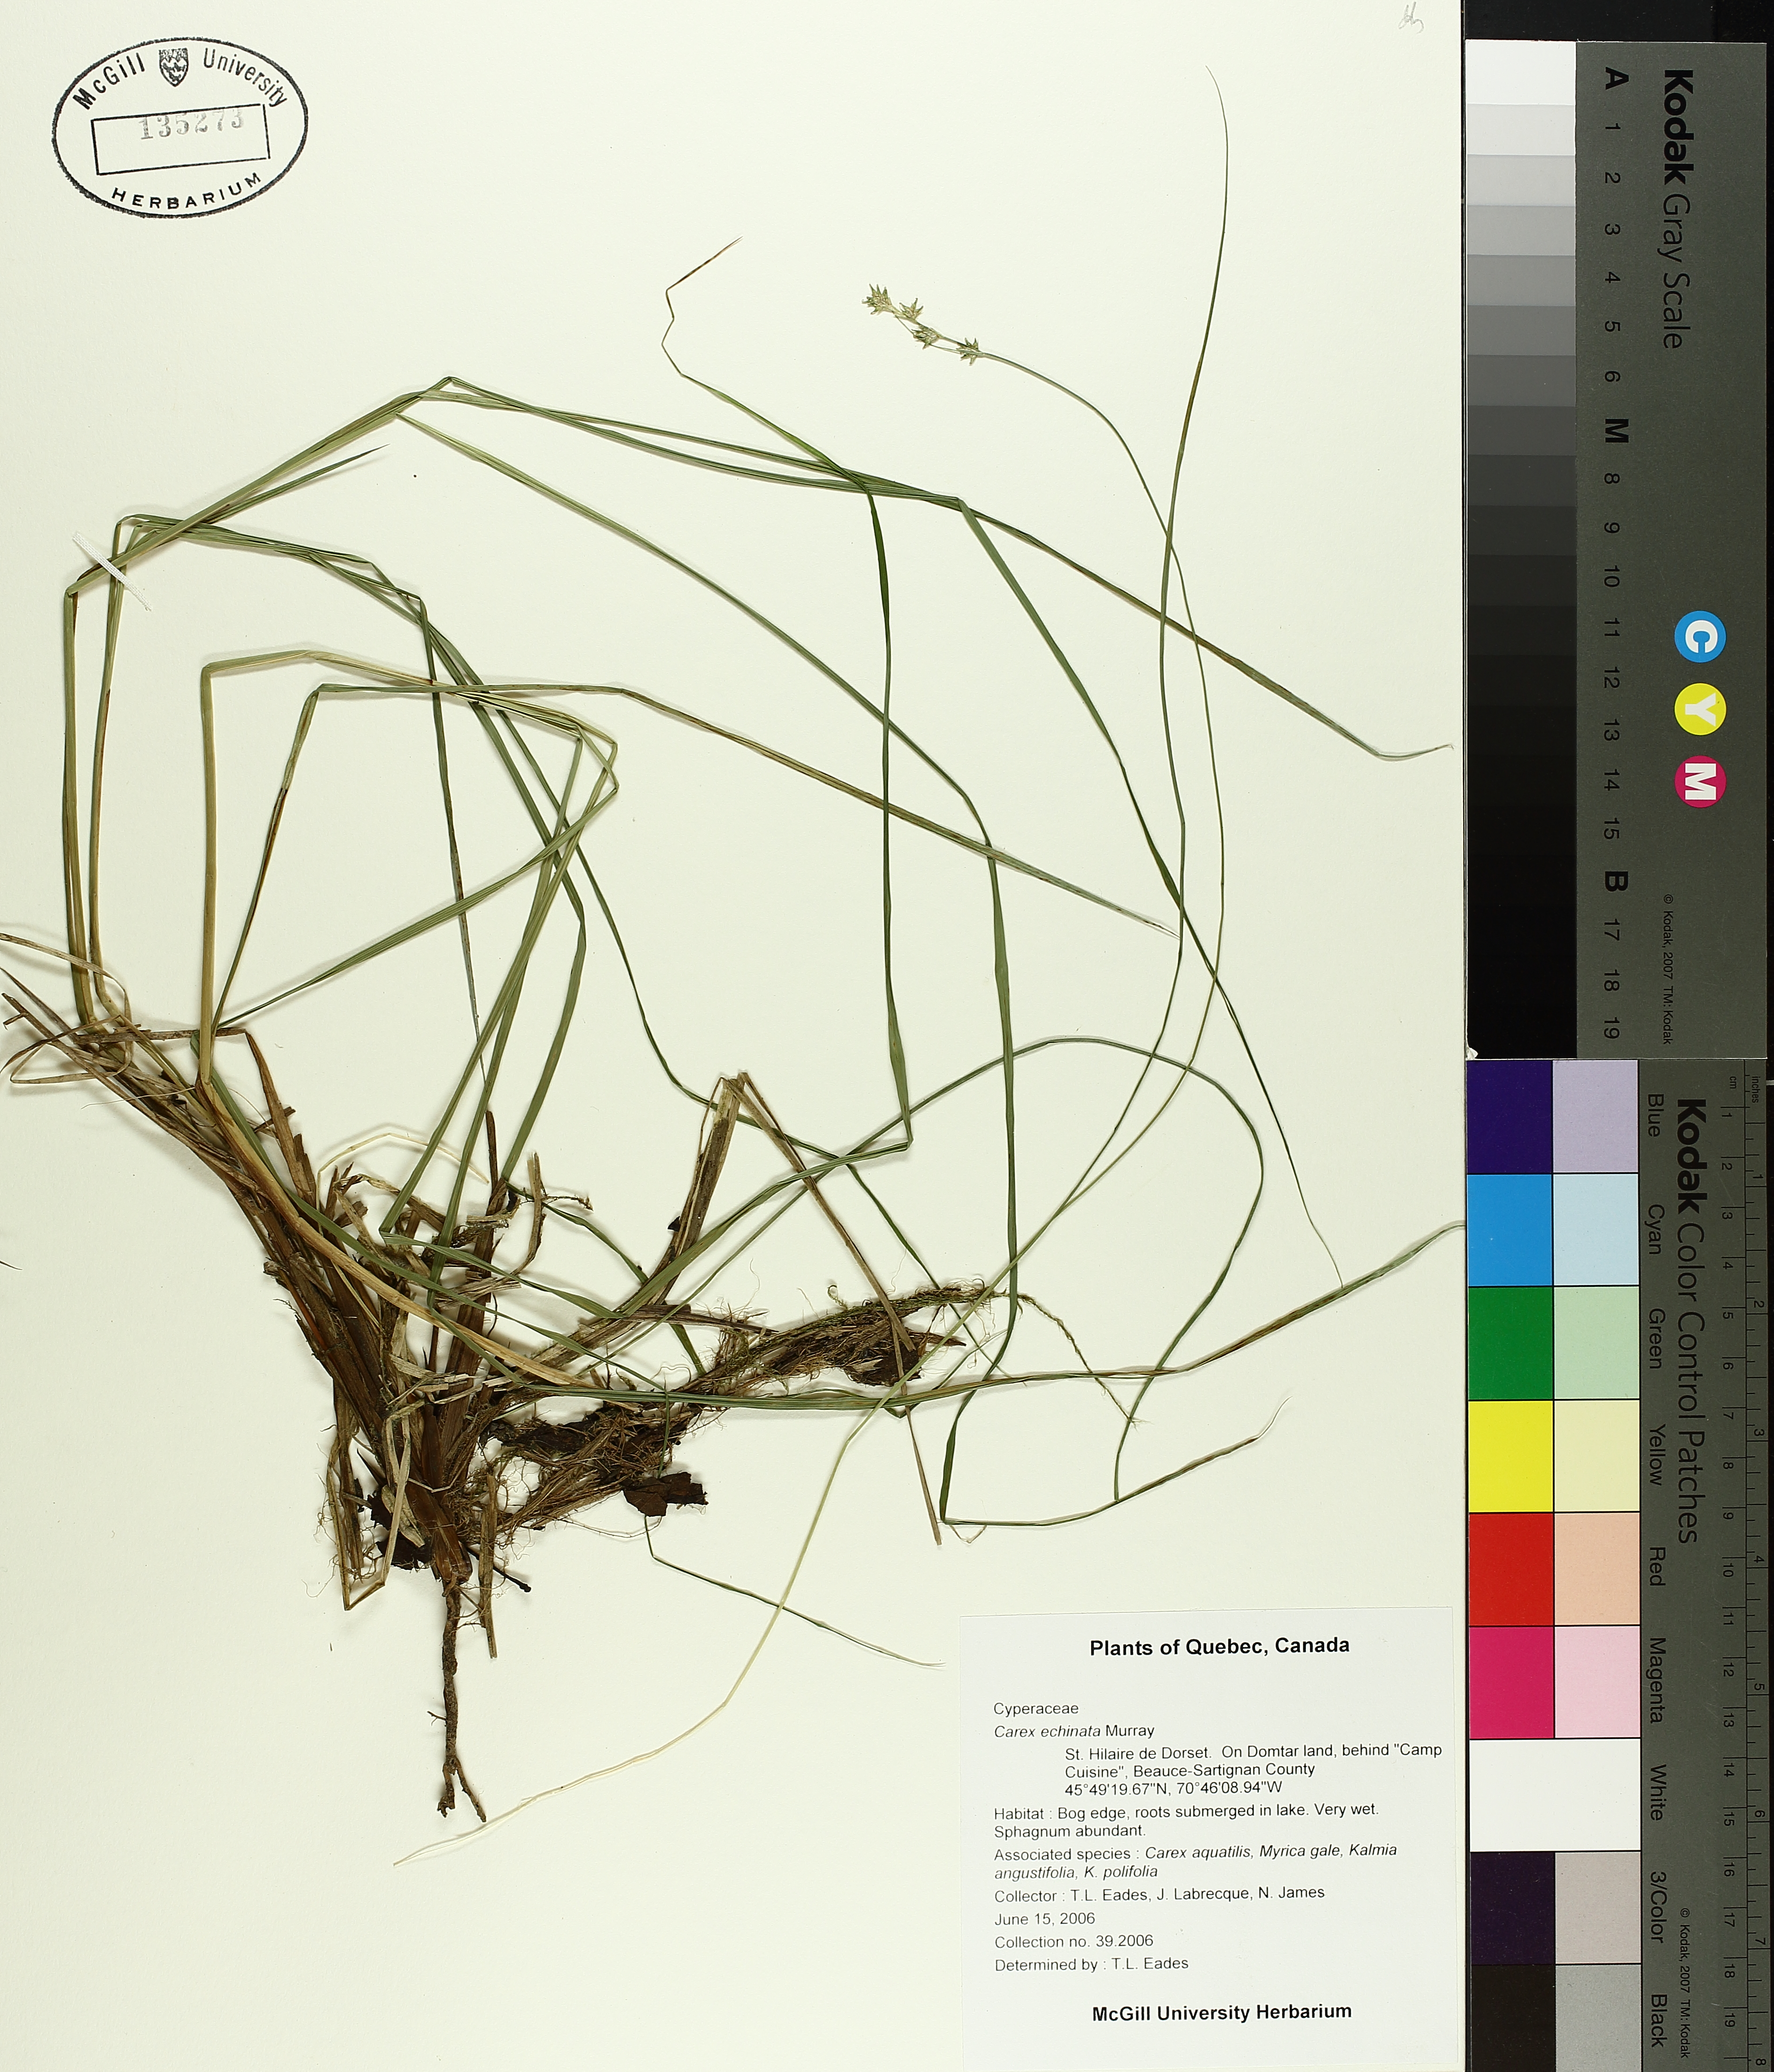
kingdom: Plantae
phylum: Tracheophyta
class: Liliopsida
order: Poales
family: Cyperaceae
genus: Carex
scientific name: Carex echinata
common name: Star sedge
